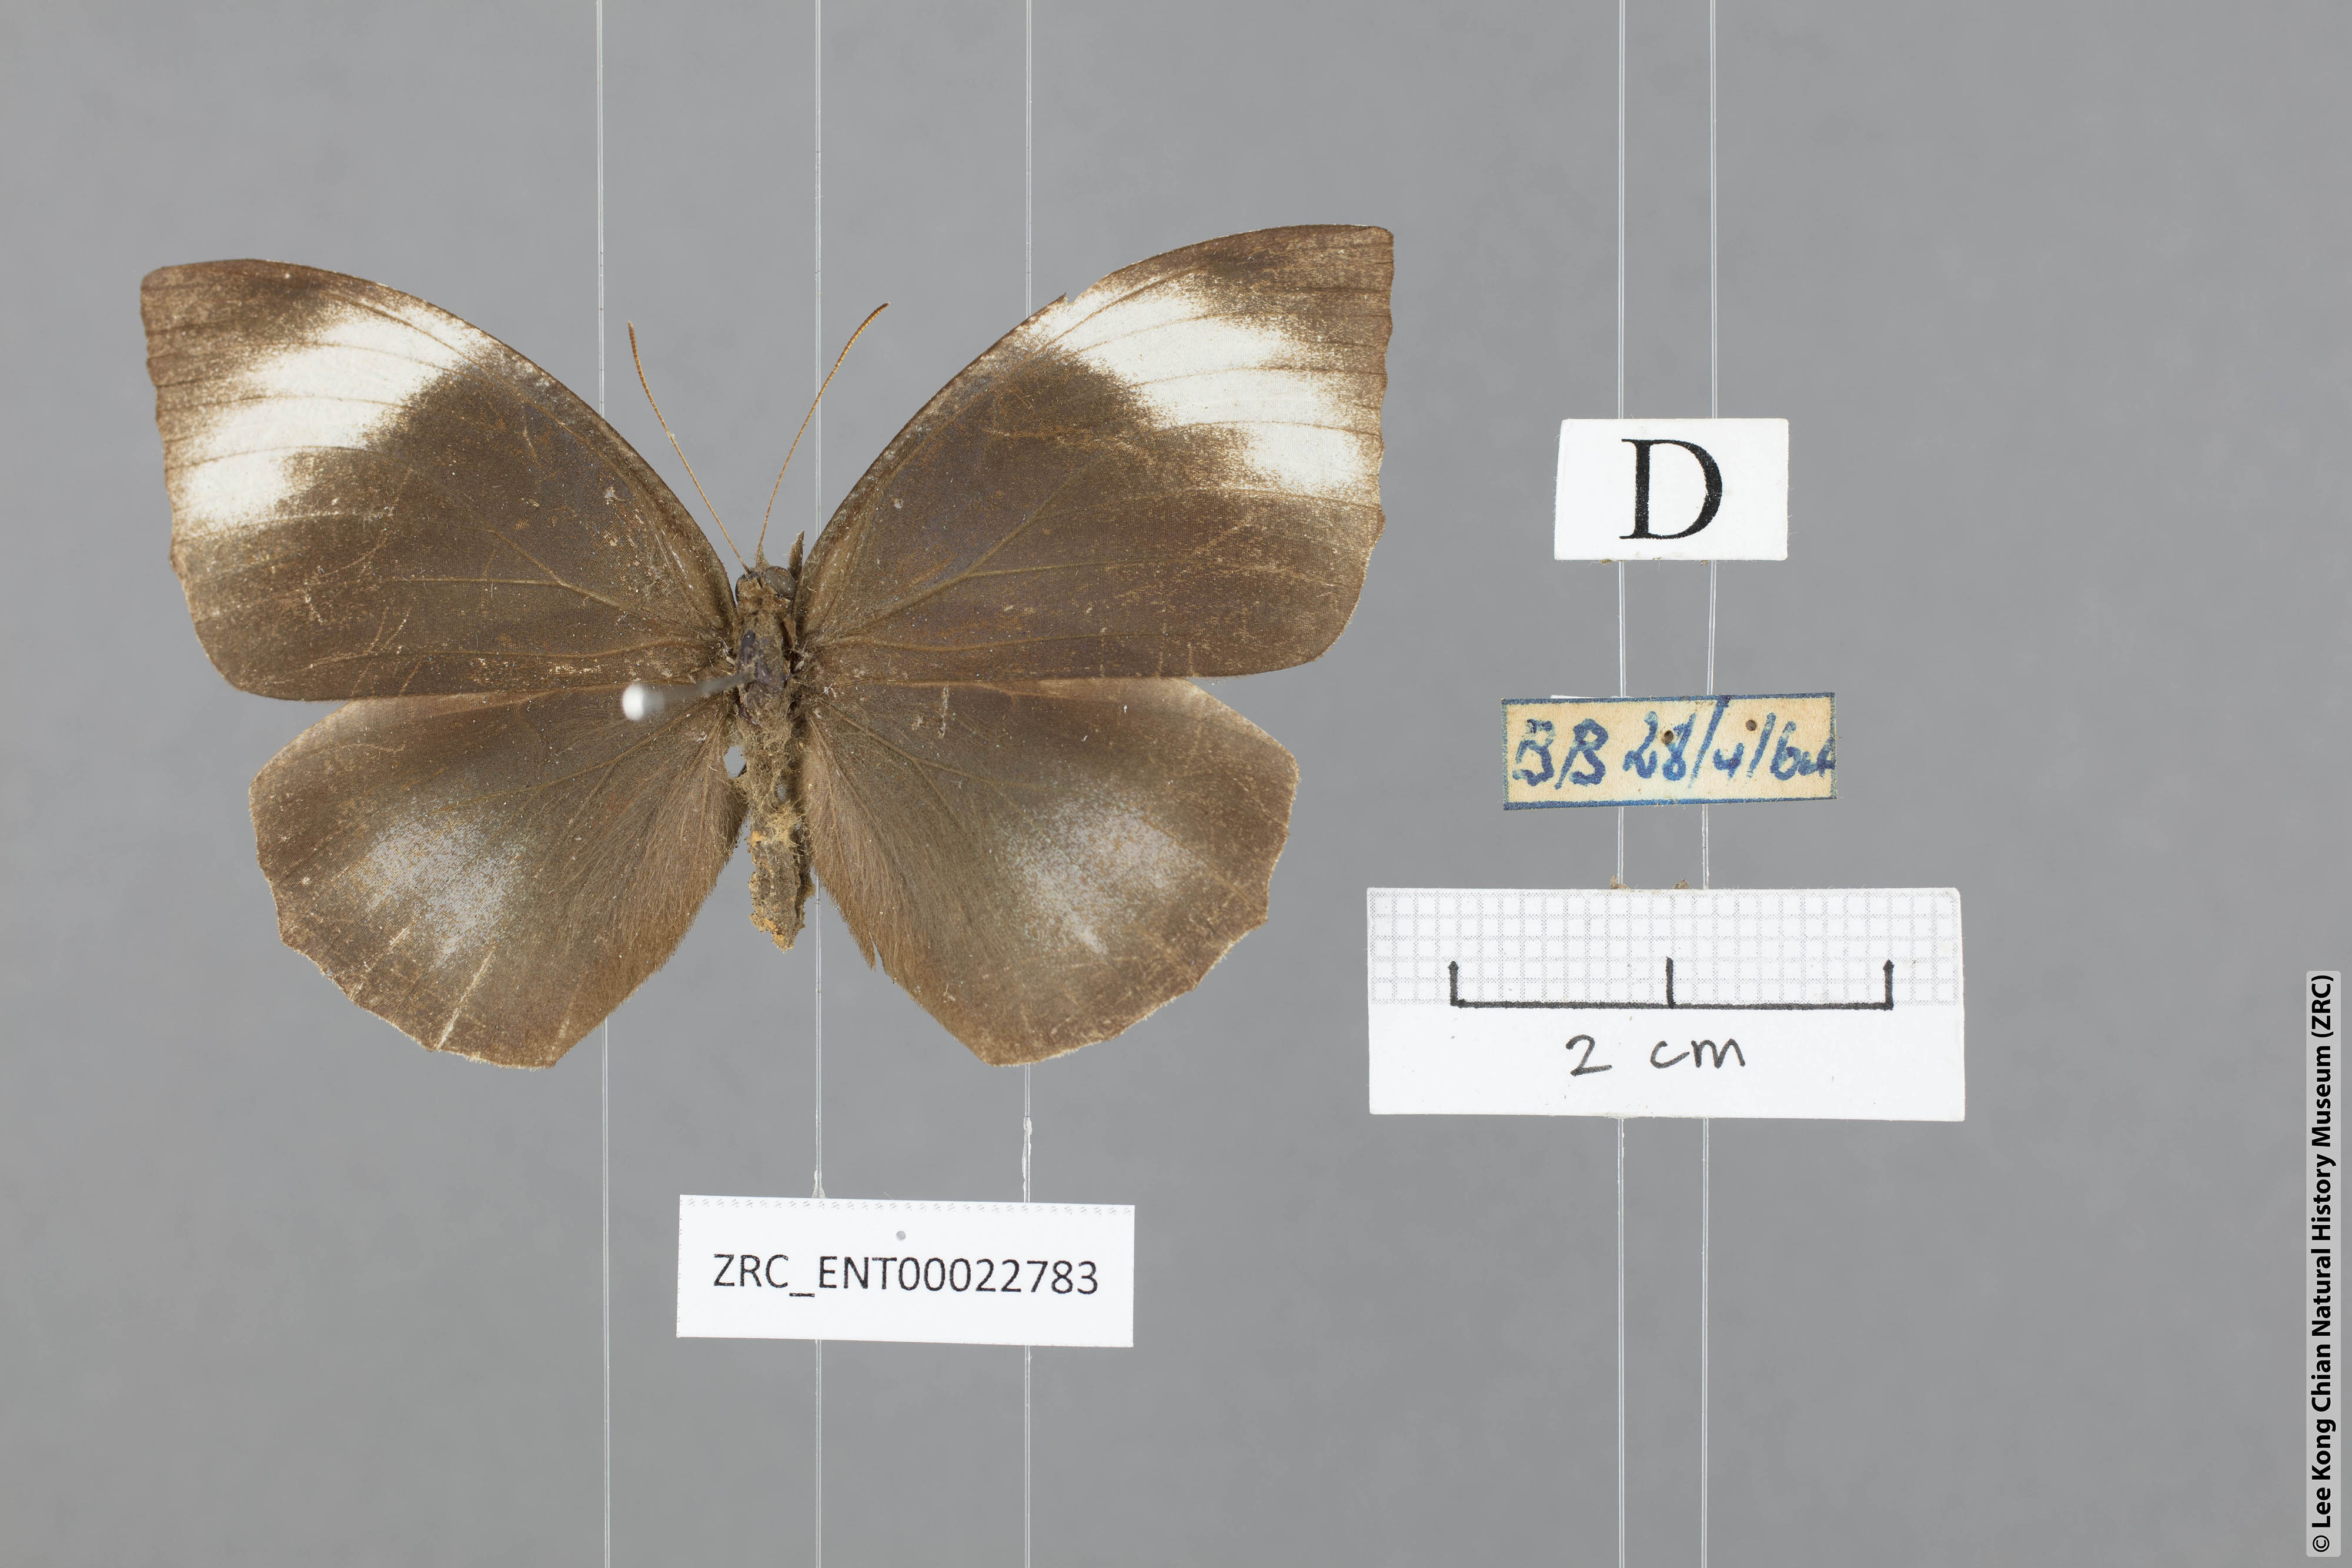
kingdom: Animalia
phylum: Arthropoda
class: Insecta
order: Lepidoptera
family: Nymphalidae
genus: Elymnias
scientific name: Elymnias penanga
